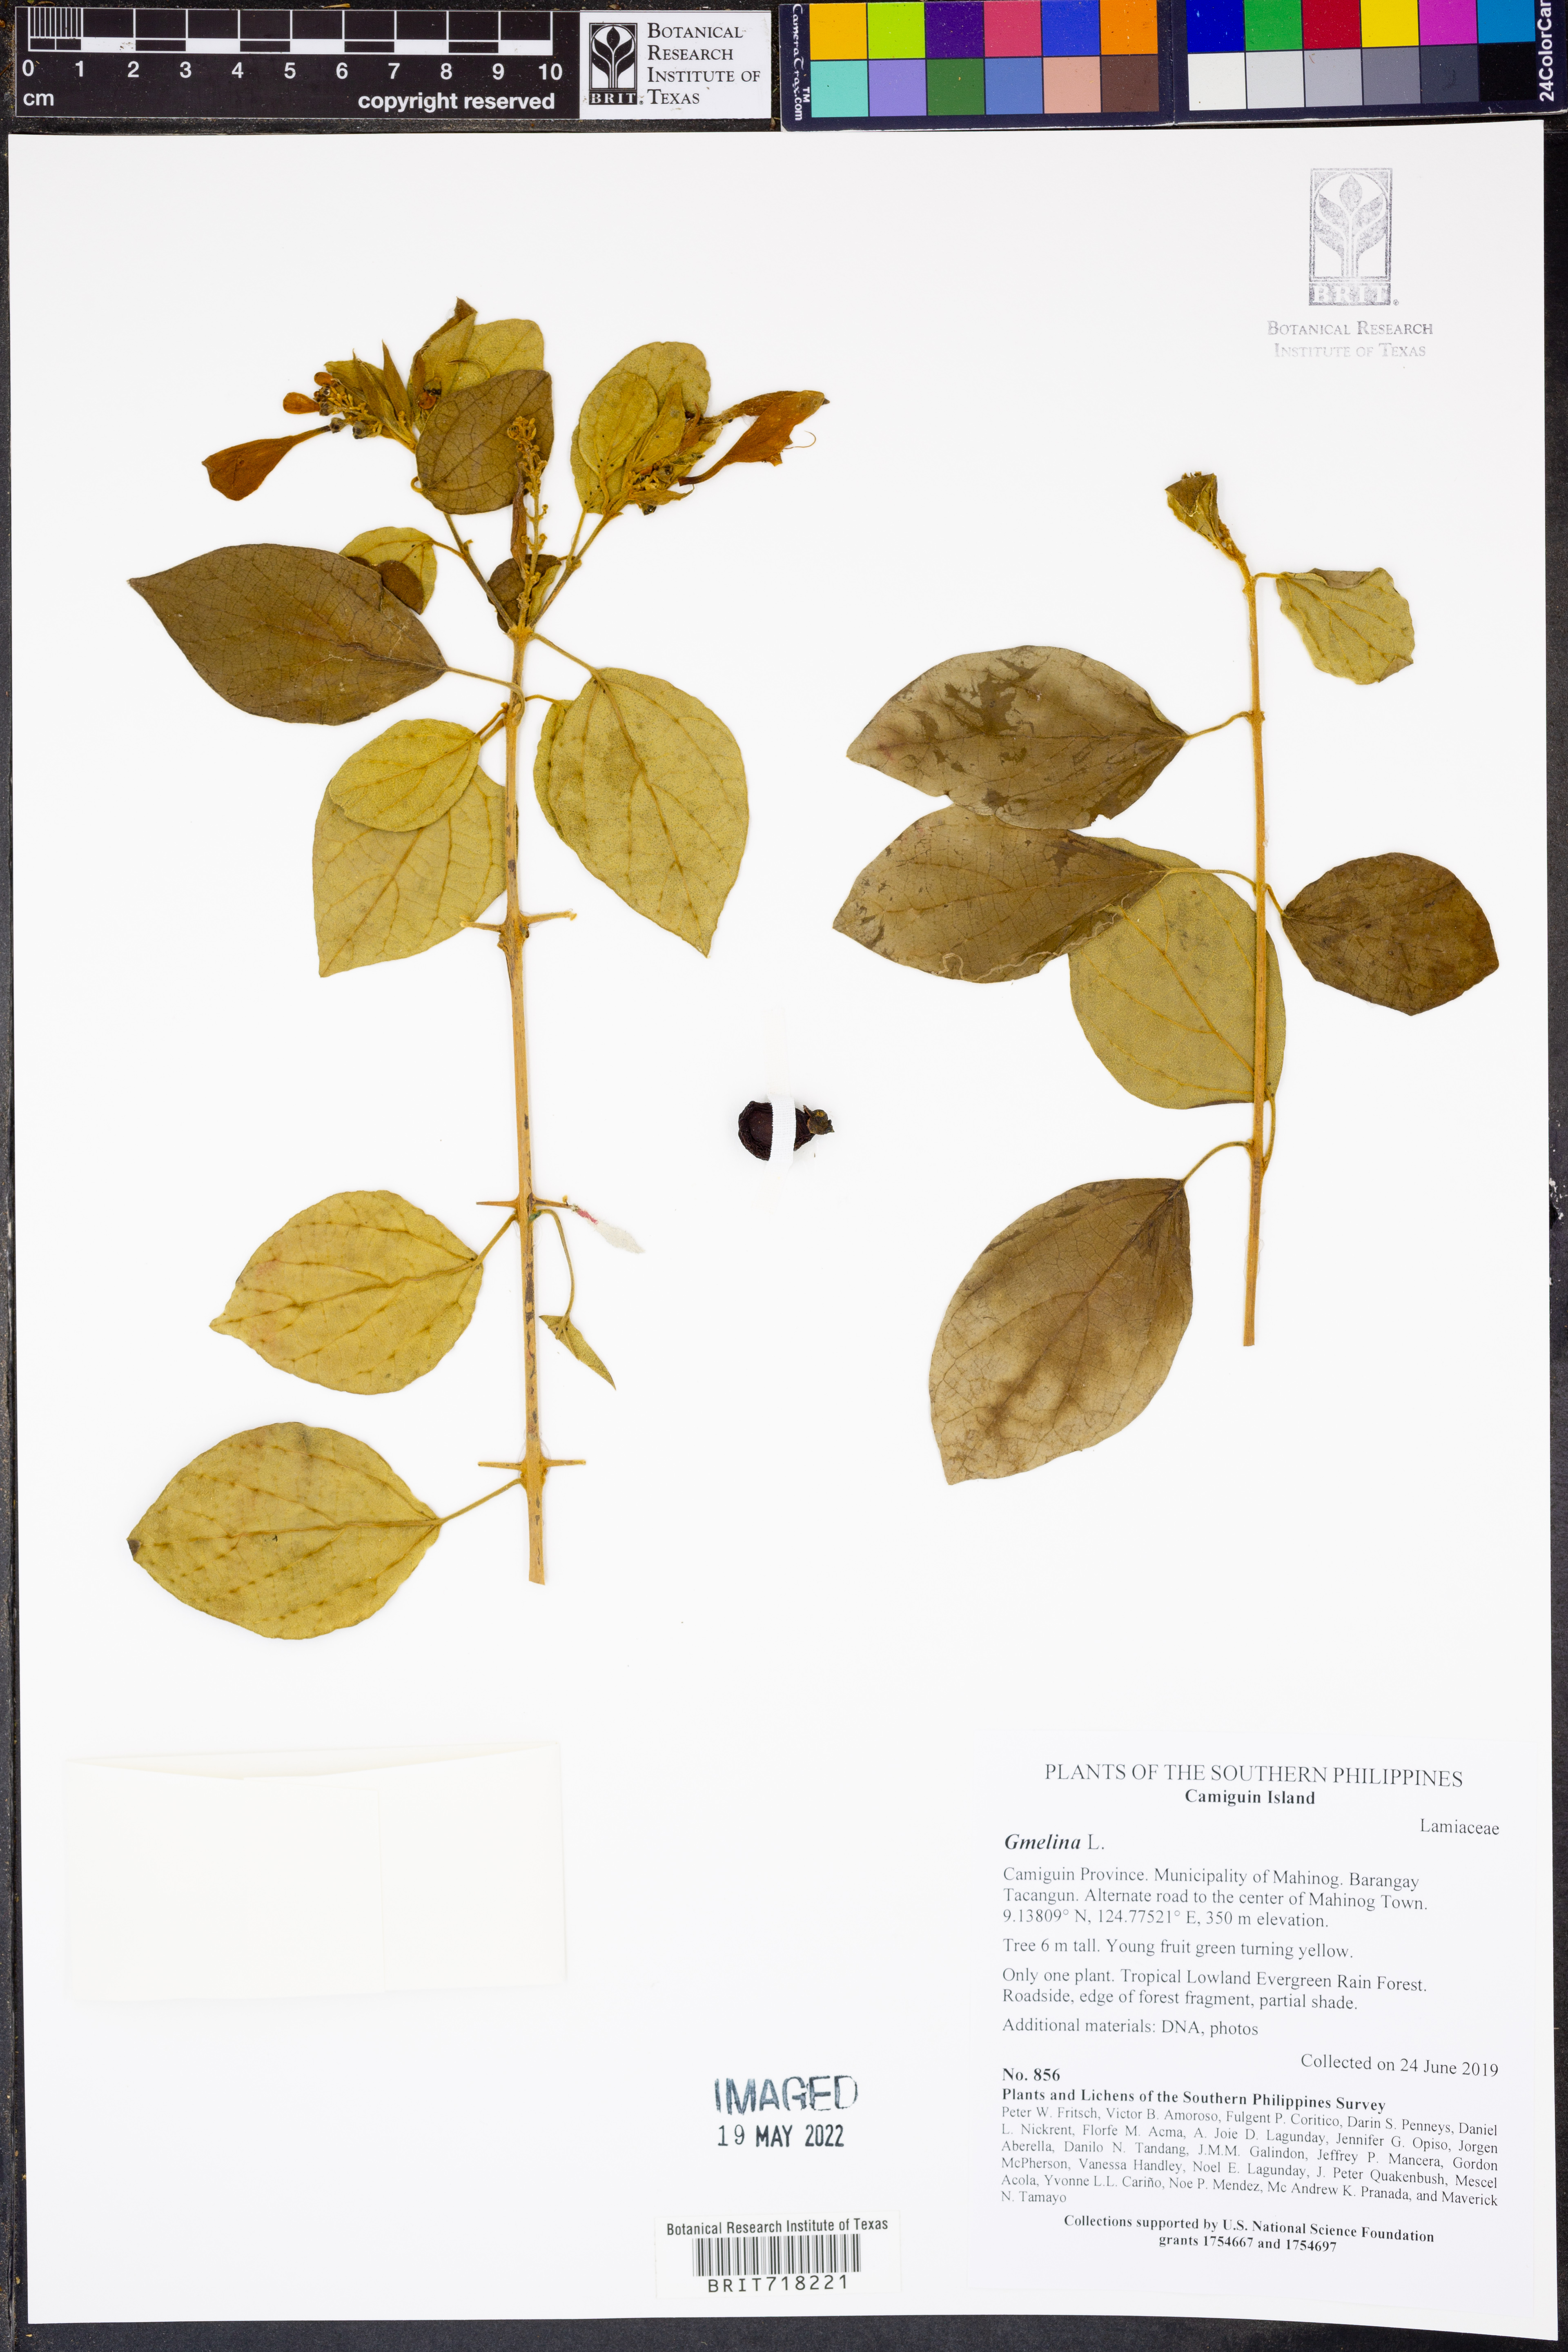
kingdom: Plantae
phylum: Tracheophyta
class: Magnoliopsida
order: Lamiales
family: Lamiaceae
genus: Gmelina
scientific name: Gmelina
